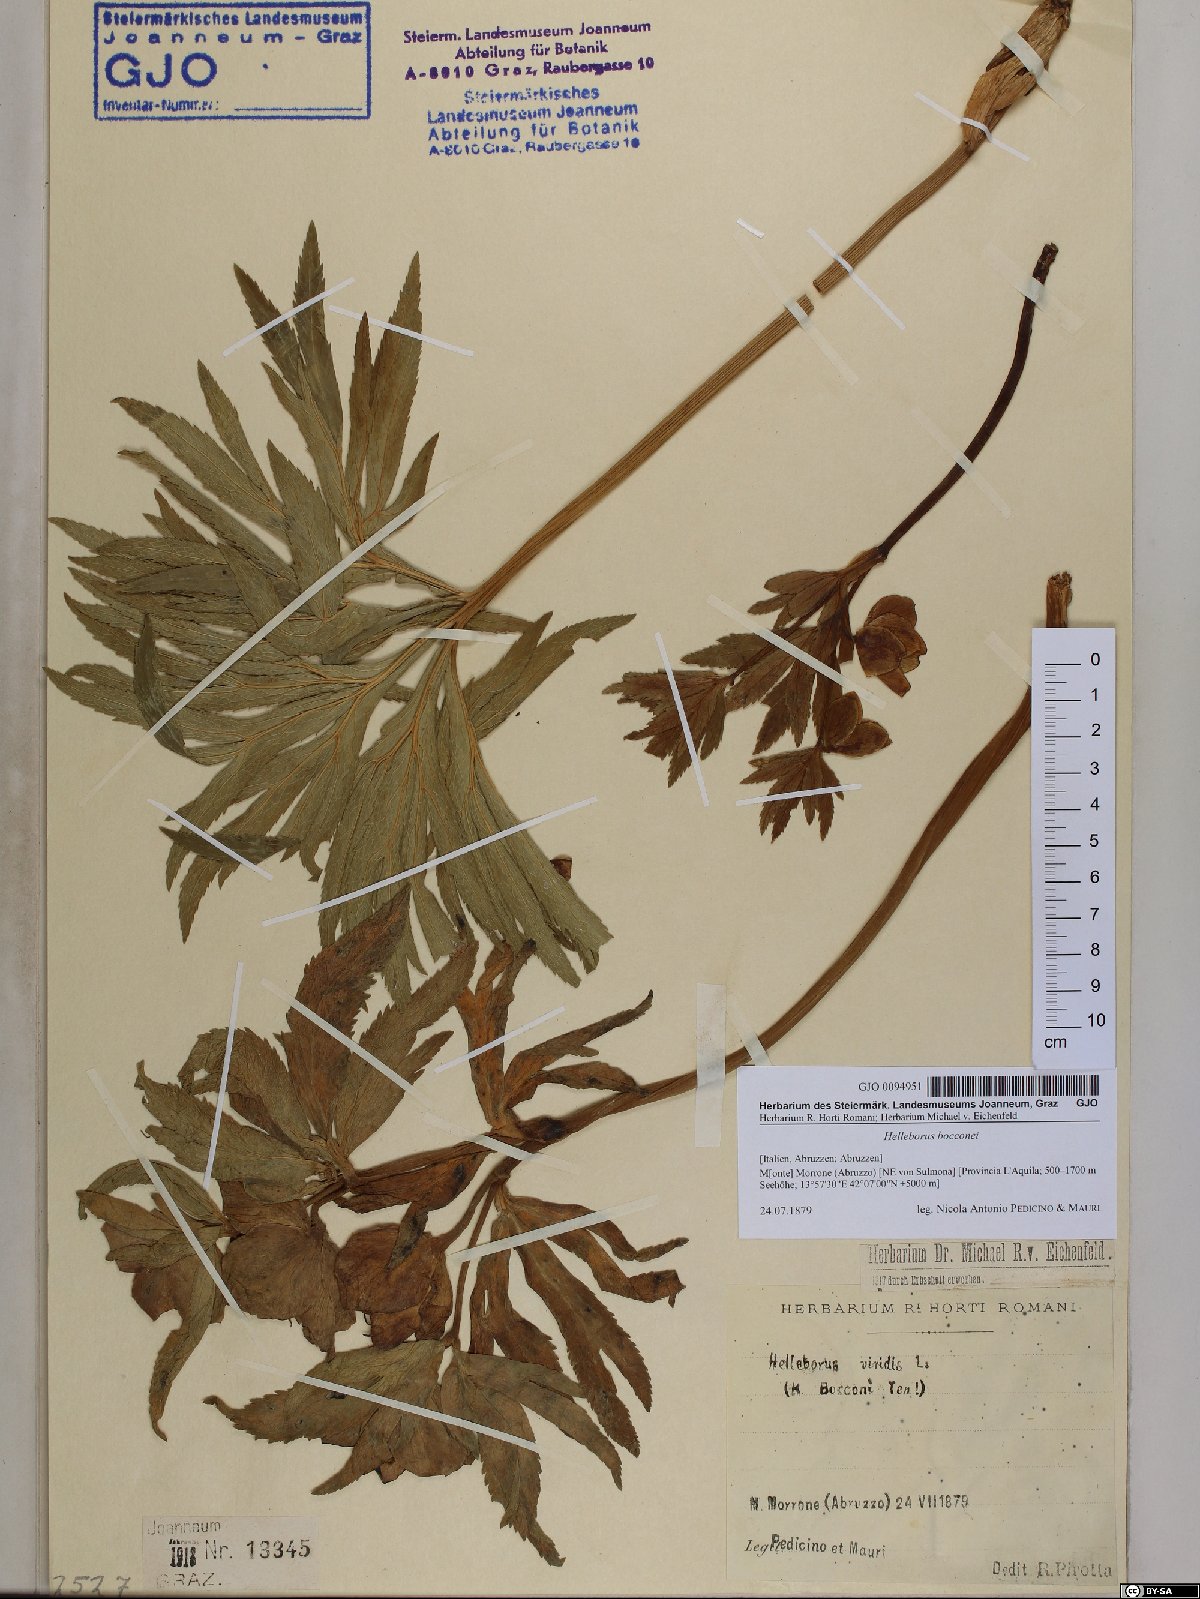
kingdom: Plantae
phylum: Tracheophyta
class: Magnoliopsida
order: Ranunculales
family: Ranunculaceae
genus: Helleborus
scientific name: Helleborus bocconei
